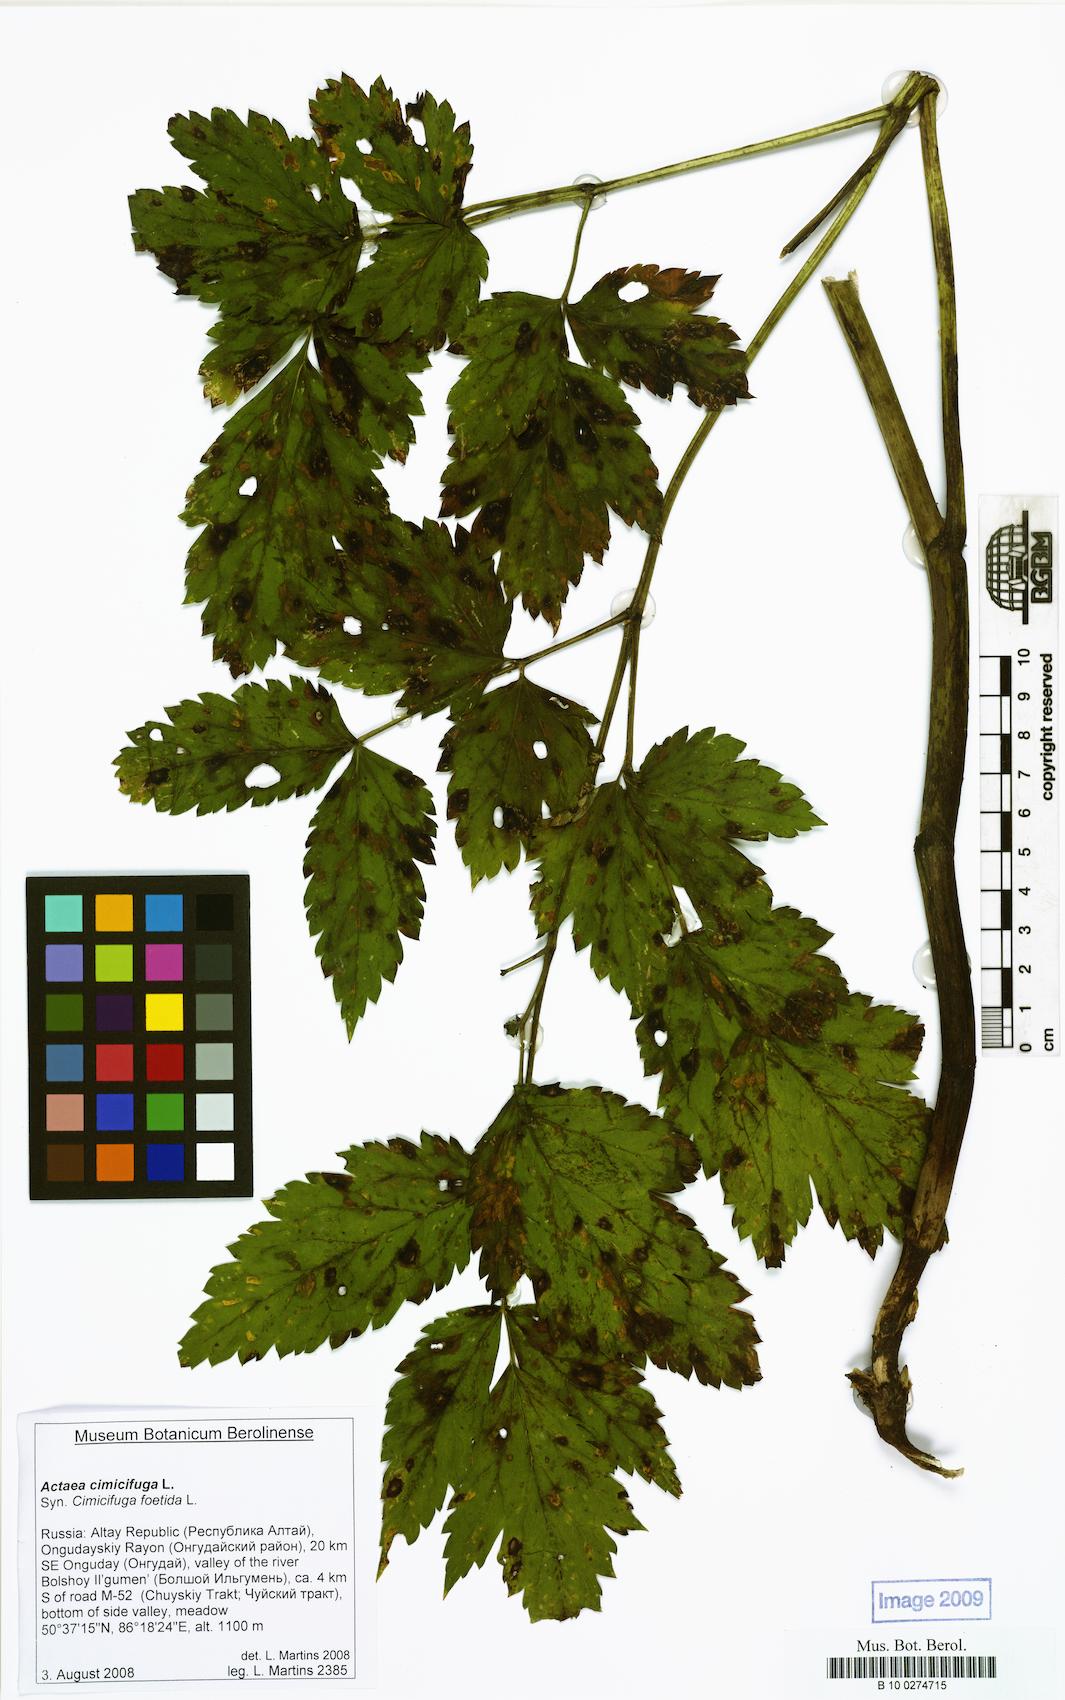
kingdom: Plantae
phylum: Tracheophyta
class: Magnoliopsida
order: Ranunculales
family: Ranunculaceae
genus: Actaea
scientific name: Actaea cimicifuga
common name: Chinese cimicifuga
